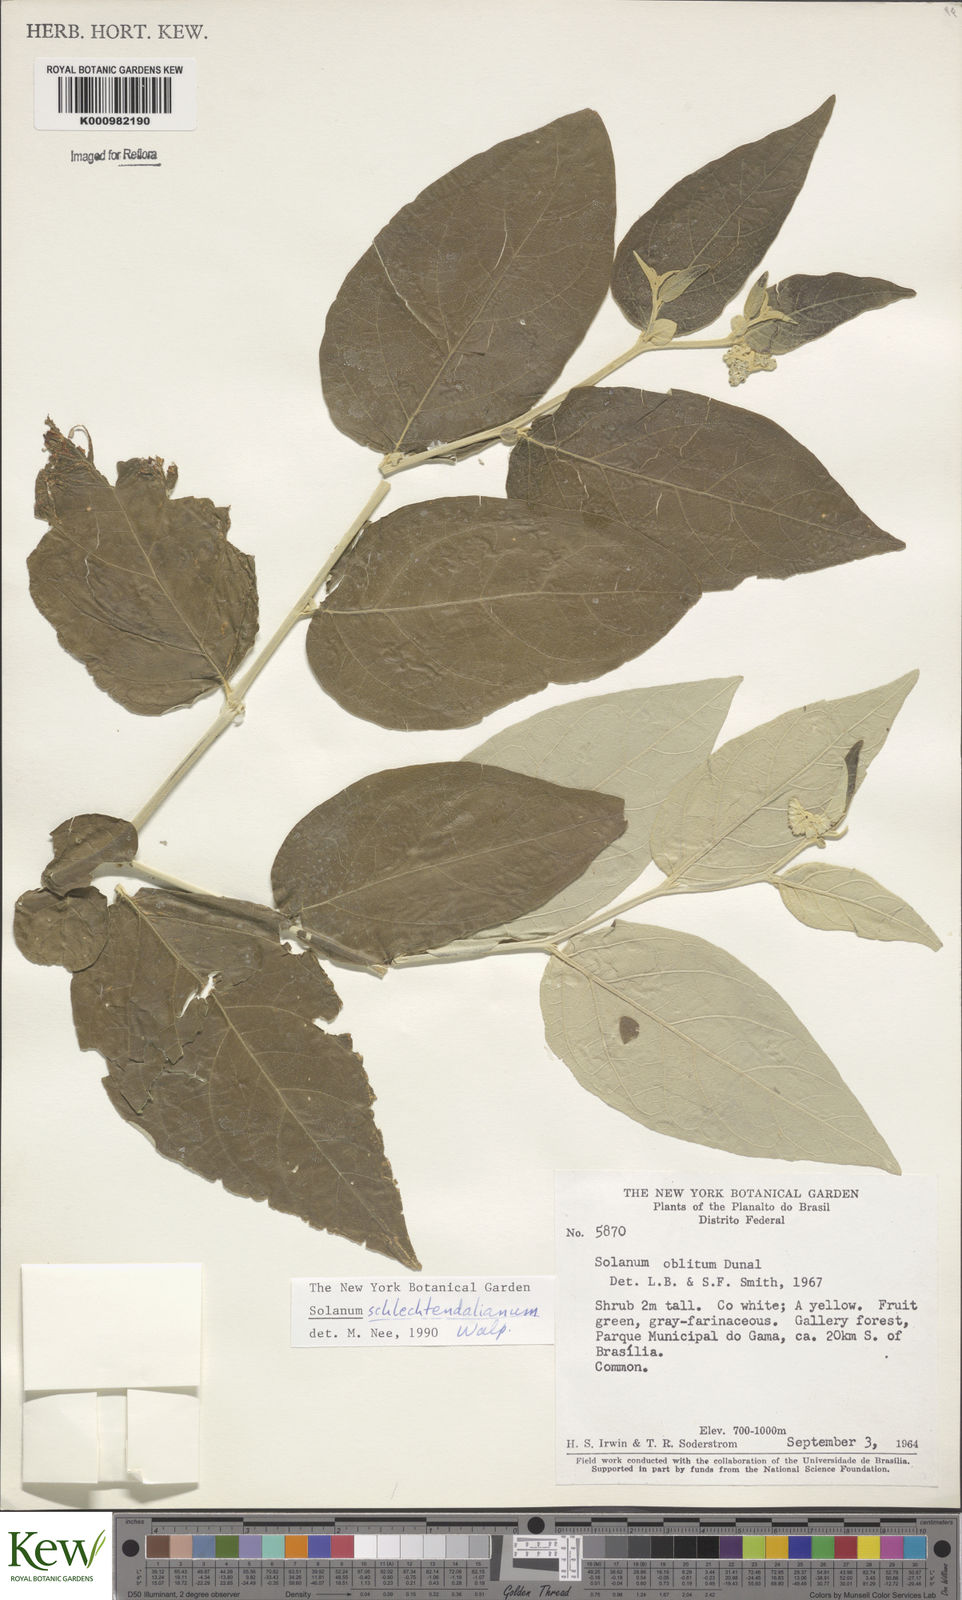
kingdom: Plantae
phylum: Tracheophyta
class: Magnoliopsida
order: Solanales
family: Solanaceae
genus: Solanum
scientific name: Solanum schlechtendalianum
